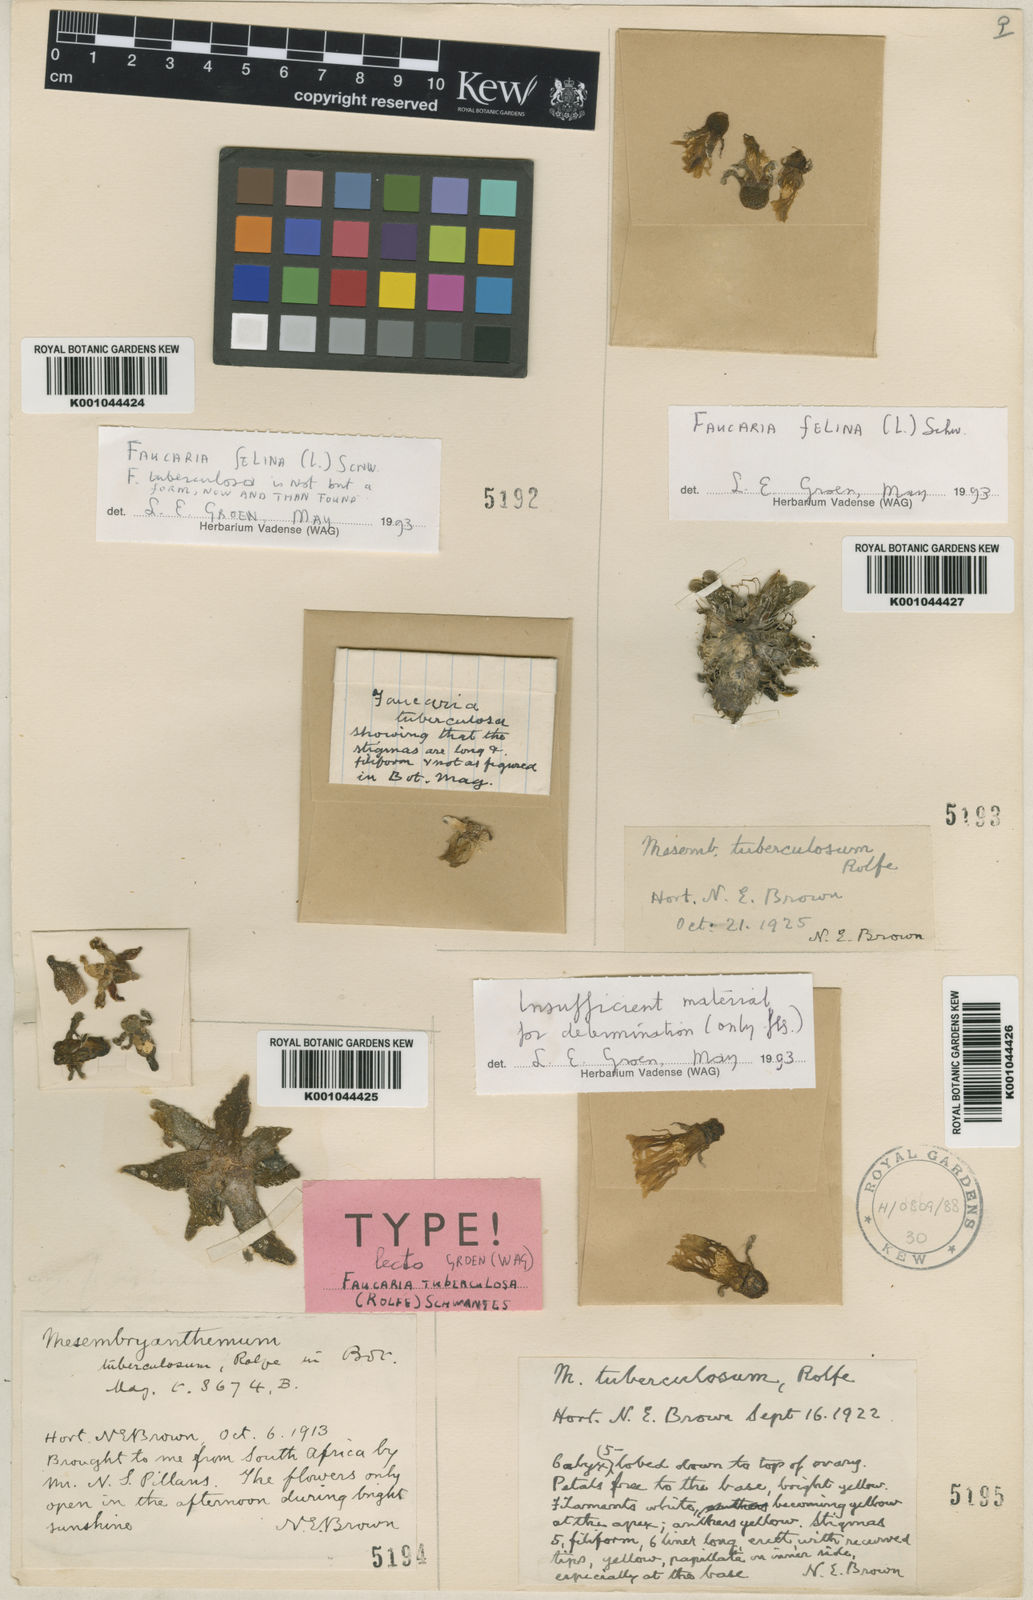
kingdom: Plantae
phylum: Tracheophyta
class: Magnoliopsida
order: Caryophyllales
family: Aizoaceae
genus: Faucaria
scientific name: Faucaria felina
